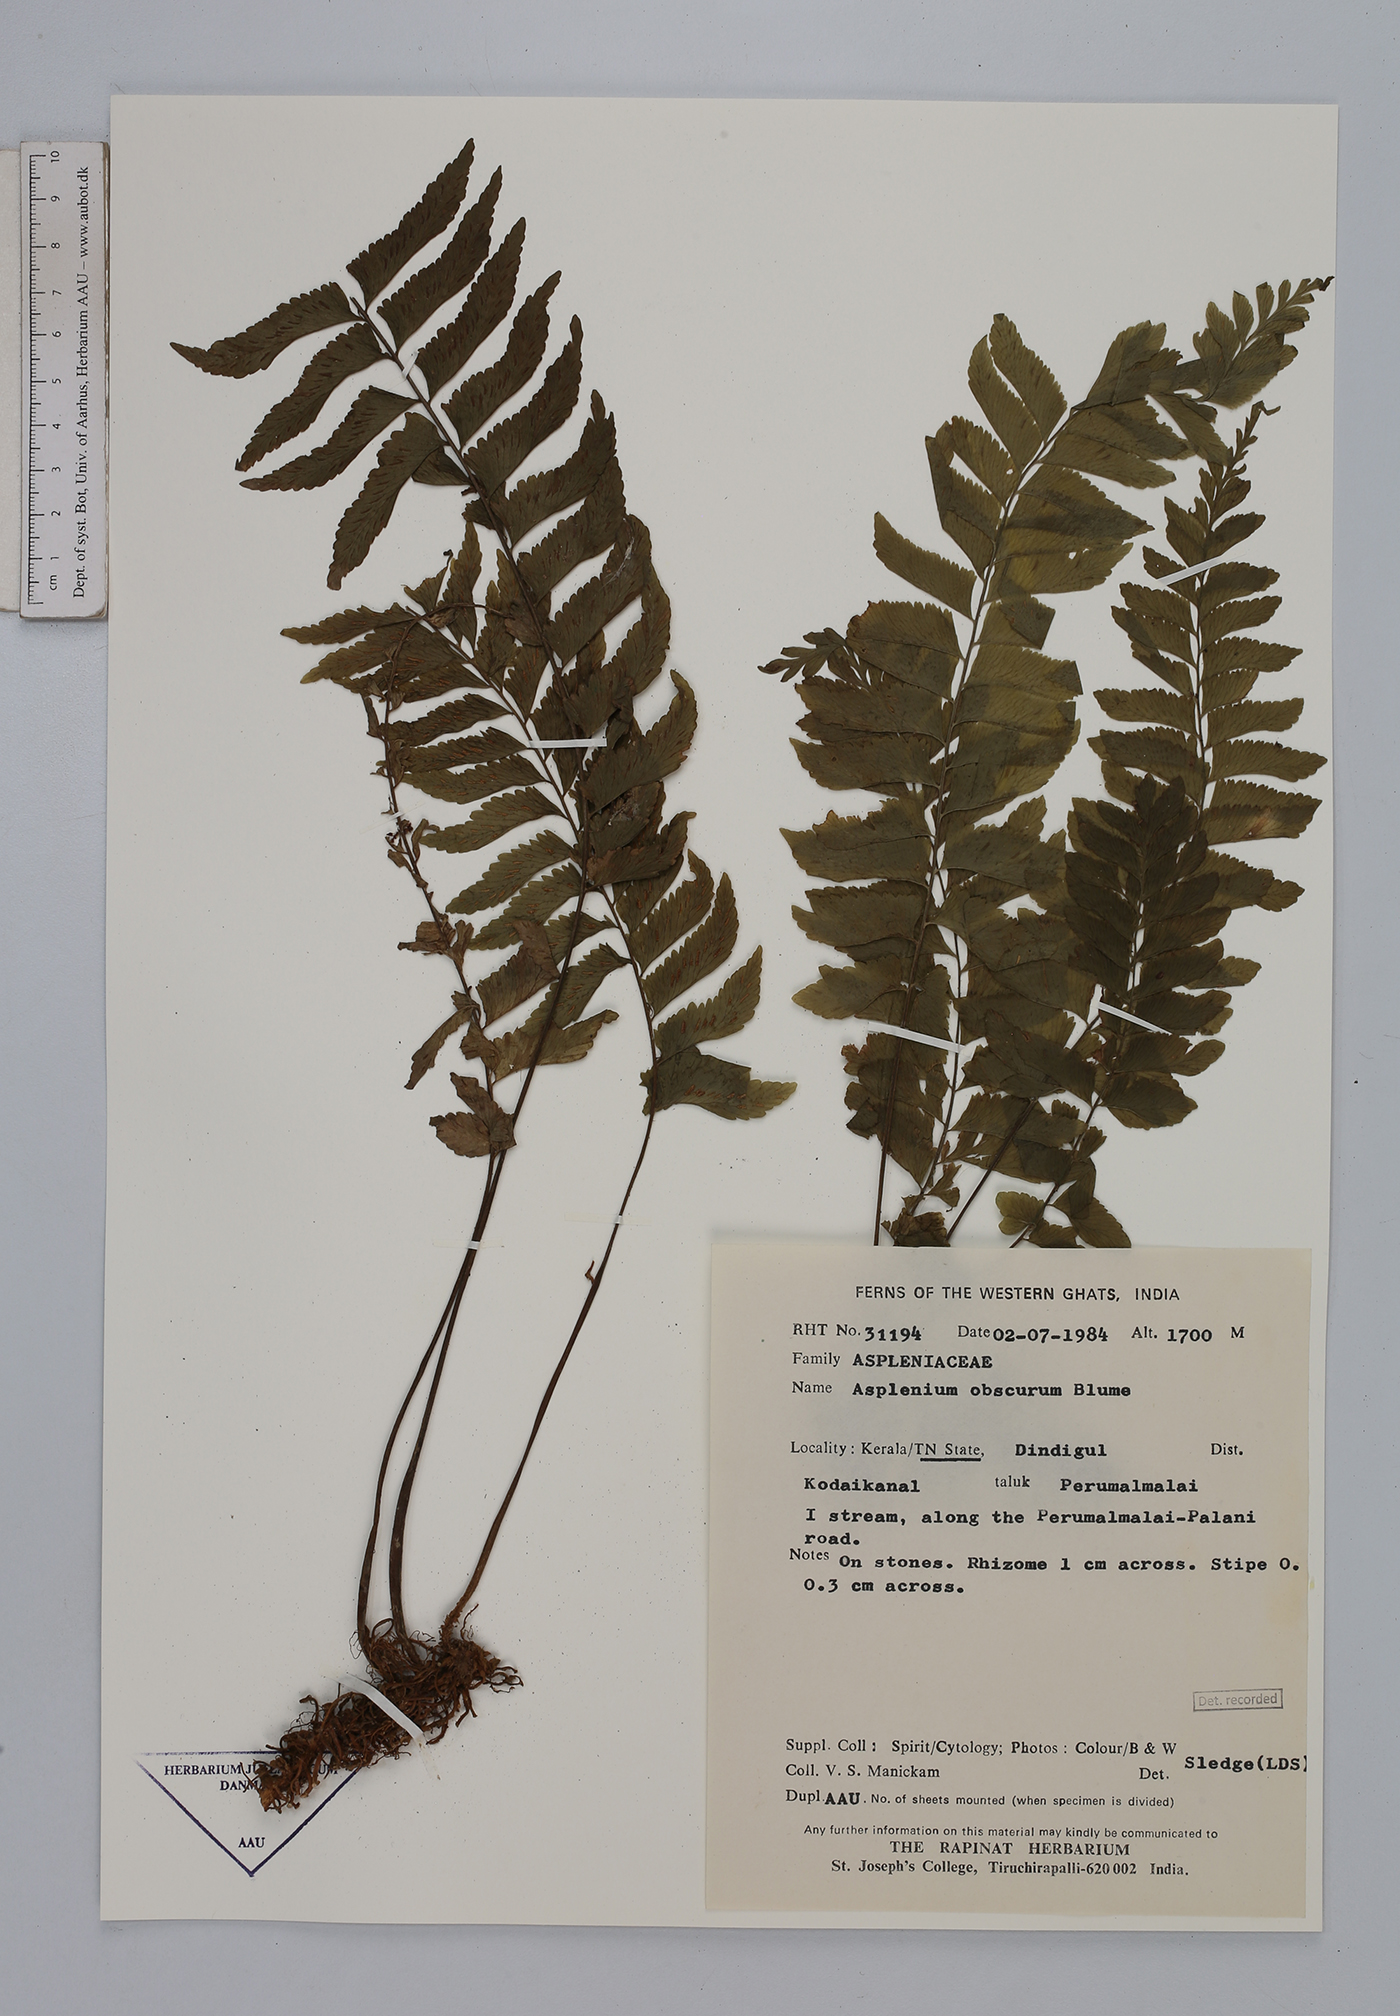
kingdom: Plantae
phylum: Tracheophyta
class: Polypodiopsida
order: Polypodiales
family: Aspleniaceae
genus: Hymenasplenium
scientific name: Hymenasplenium obscurum
